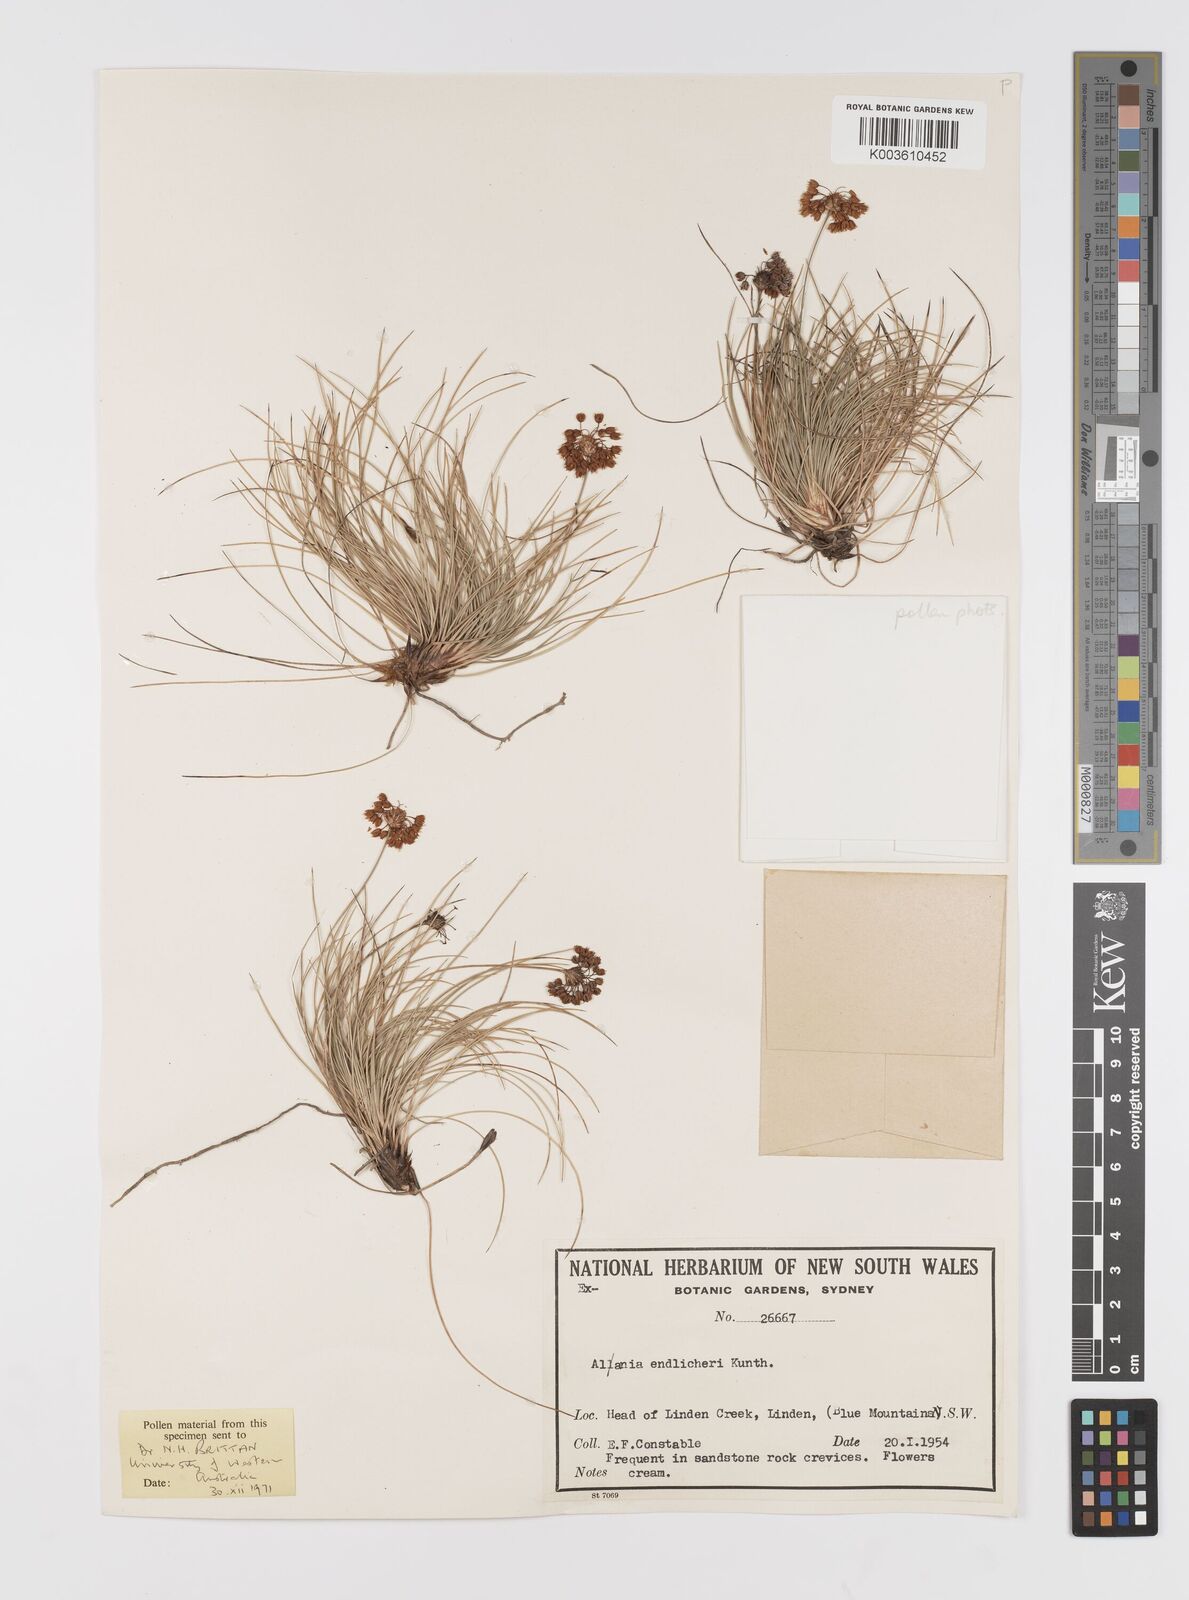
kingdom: Plantae
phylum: Tracheophyta
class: Liliopsida
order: Asparagales
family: Boryaceae
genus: Alania
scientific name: Alania cunninghamii
